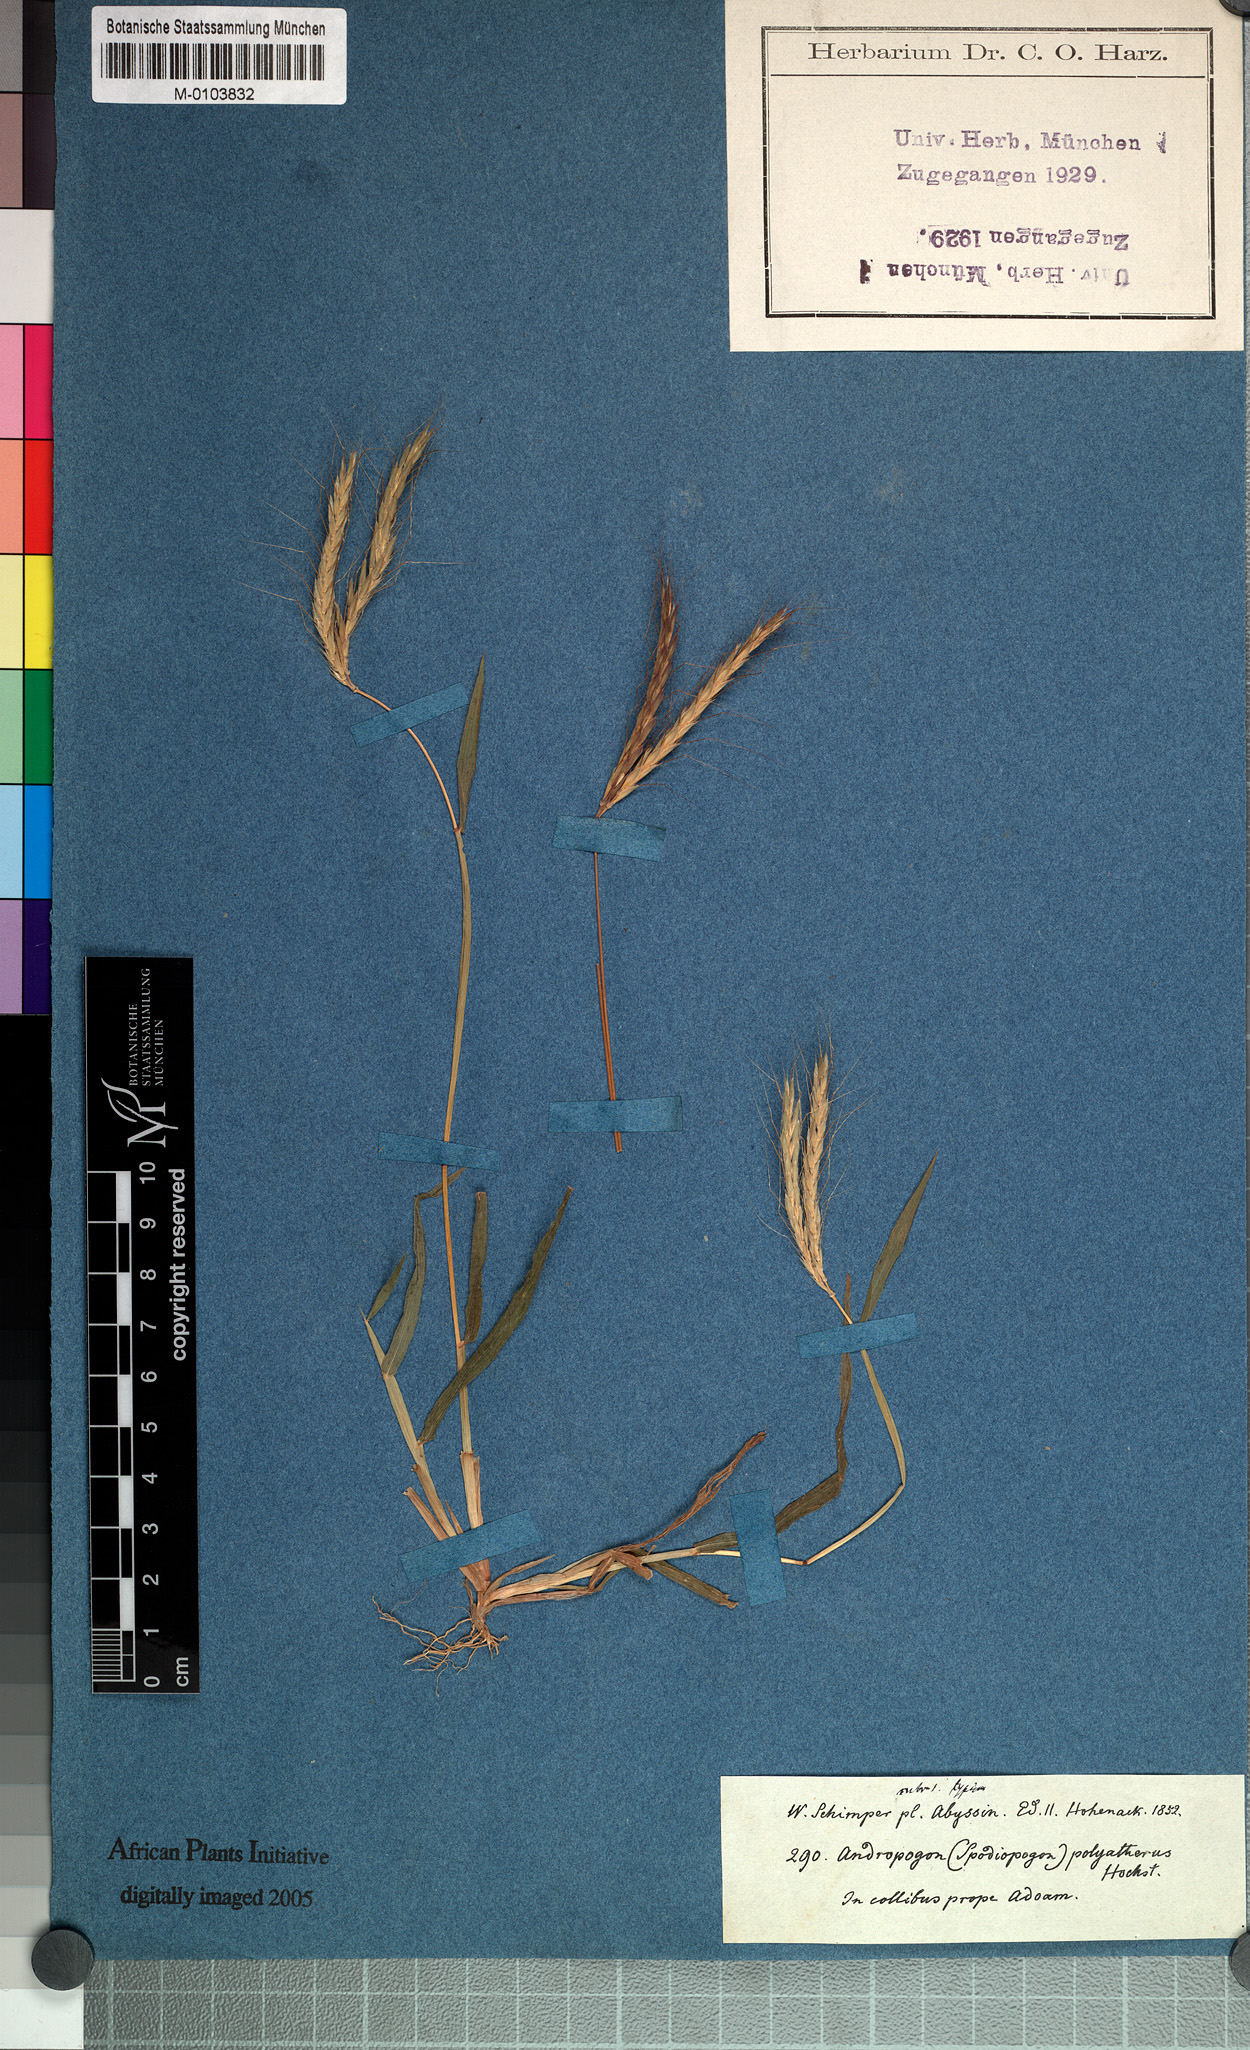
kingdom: Plantae
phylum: Tracheophyta
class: Liliopsida
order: Poales
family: Poaceae
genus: Andropogon
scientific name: Andropogon abyssinicus
